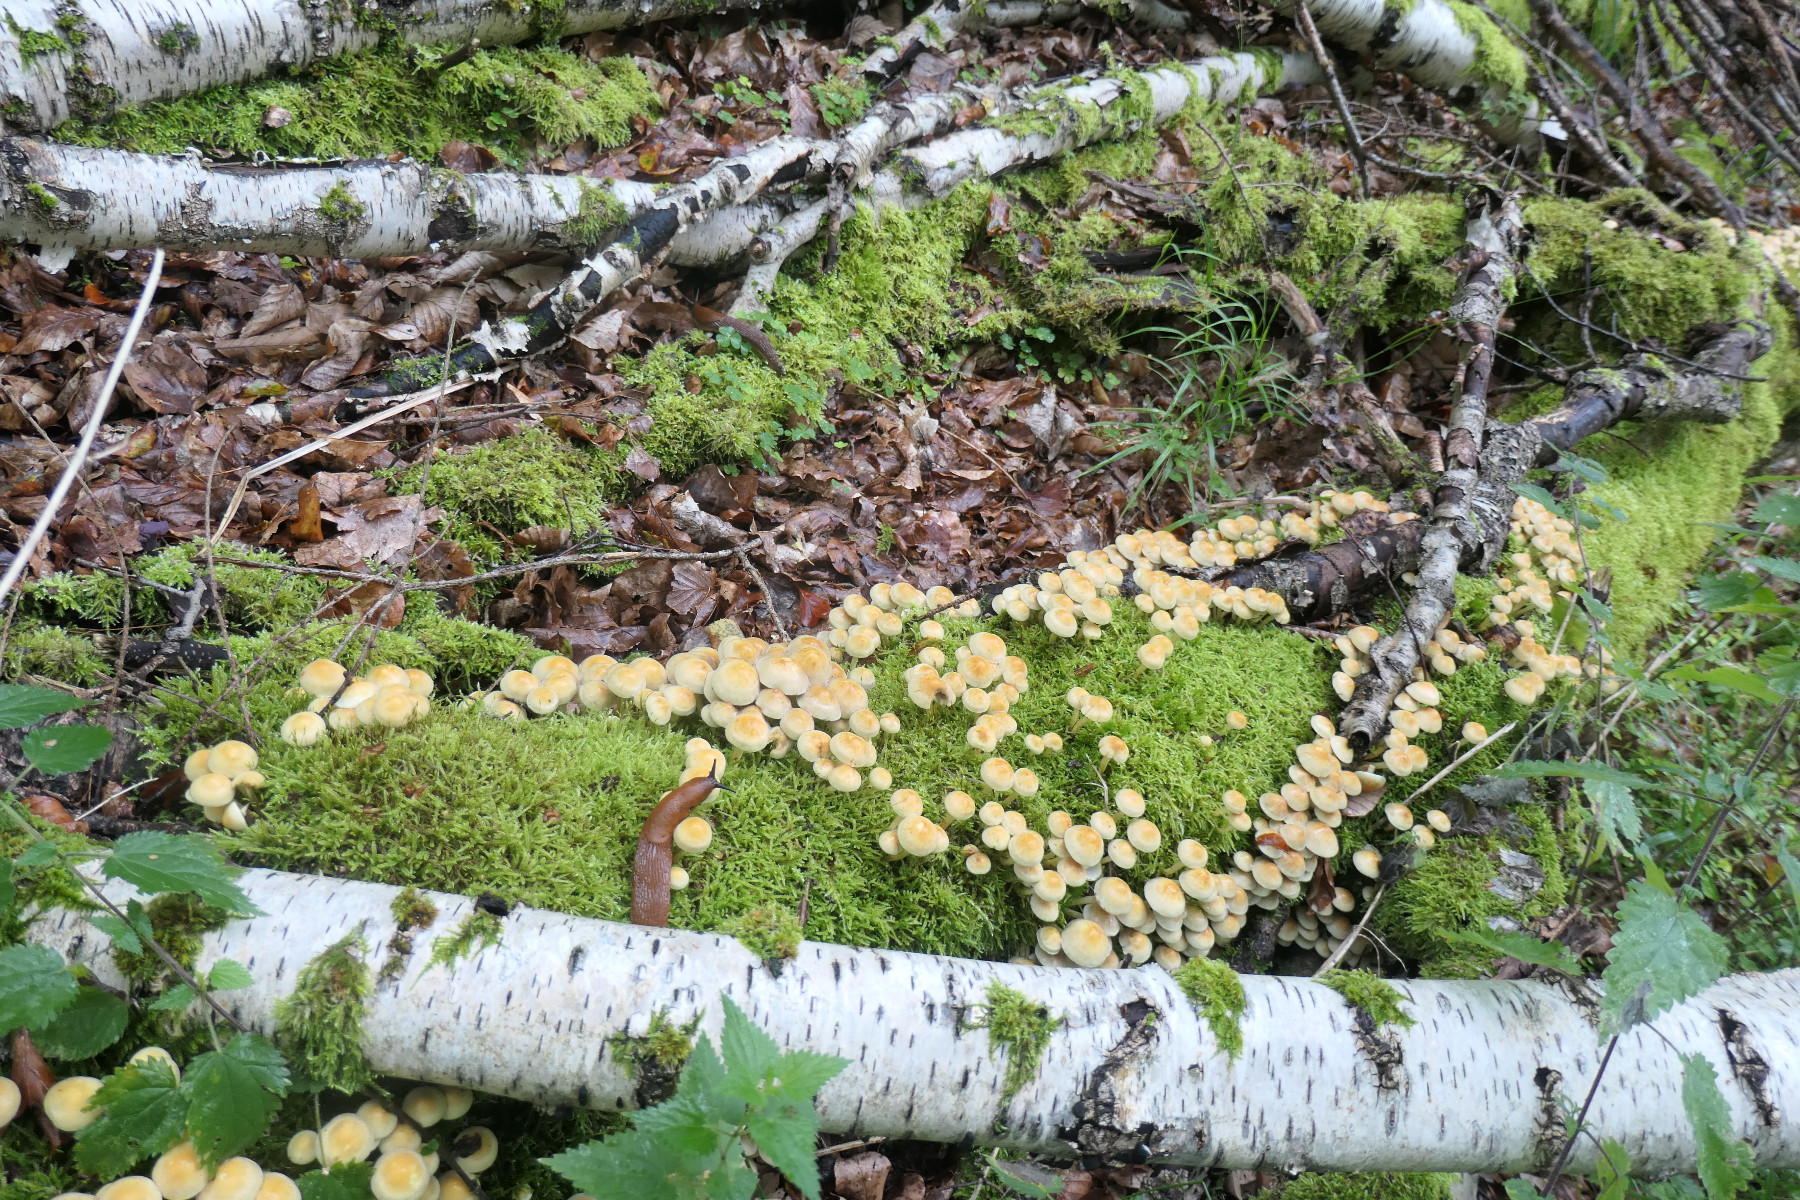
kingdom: Fungi
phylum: Basidiomycota
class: Agaricomycetes
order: Agaricales
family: Strophariaceae
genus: Hypholoma
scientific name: Hypholoma fasciculare
